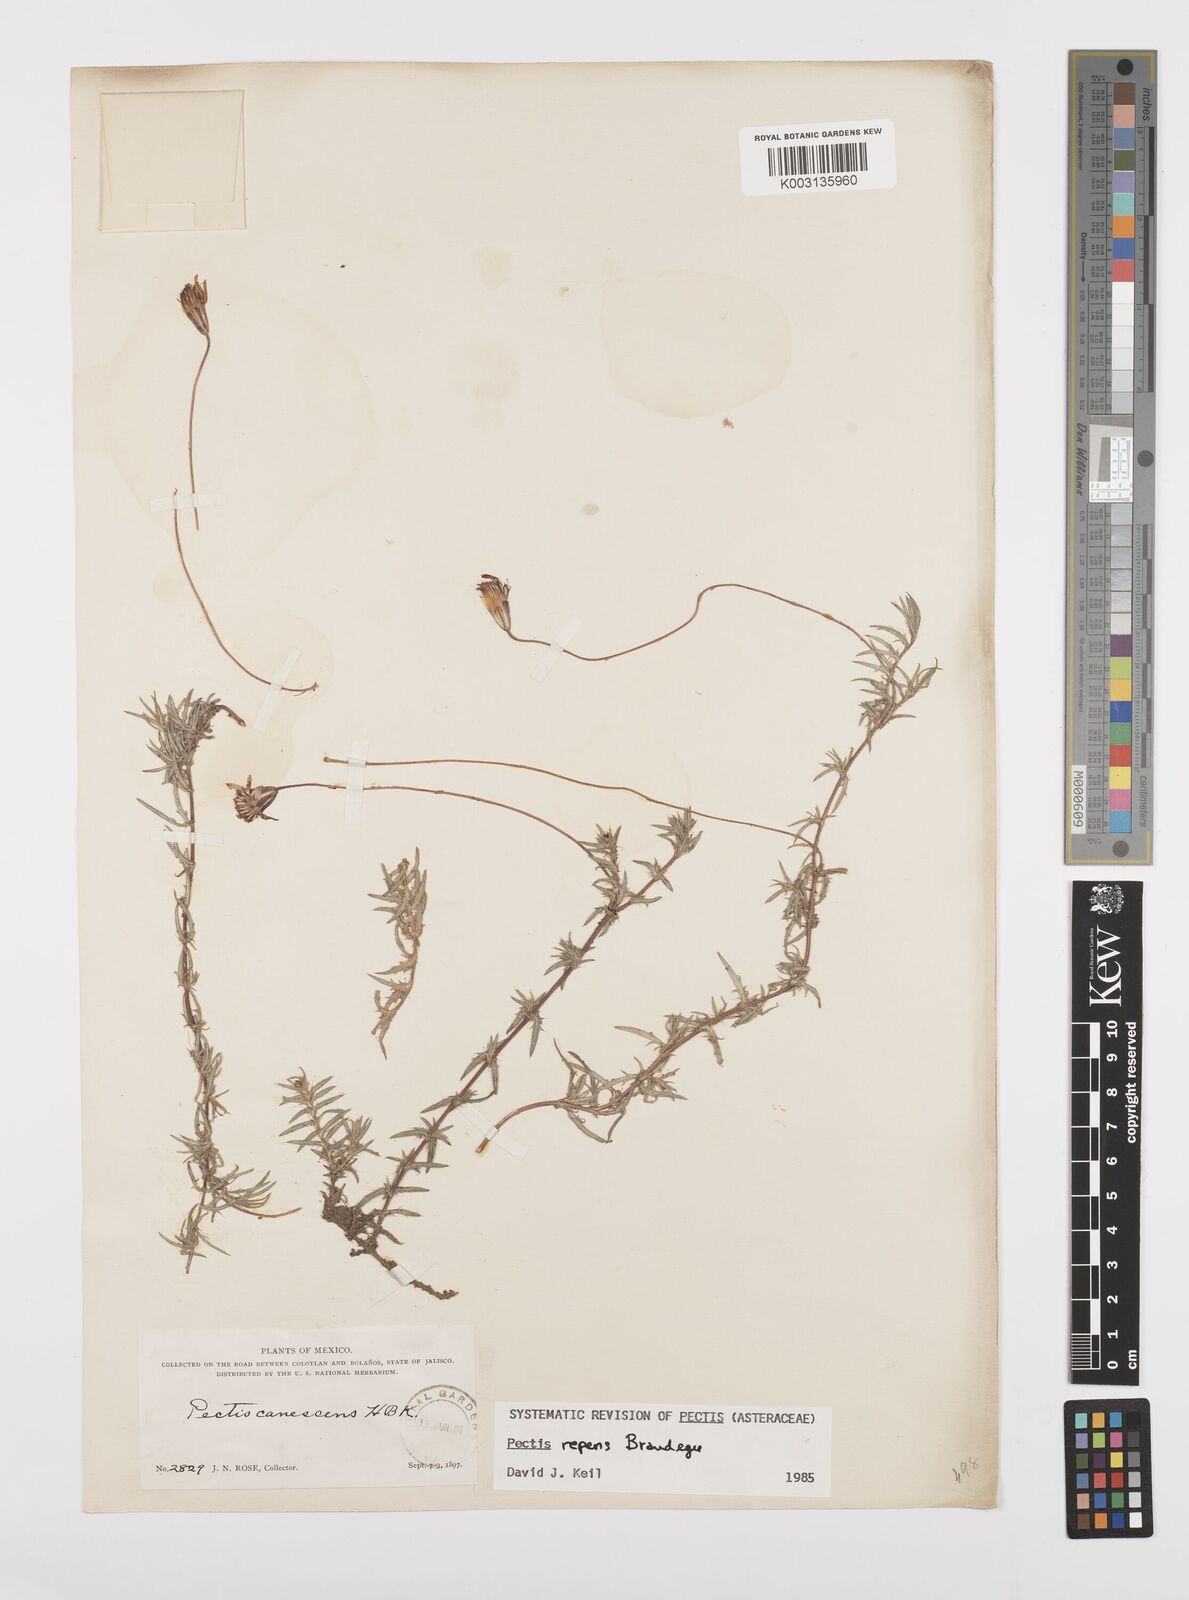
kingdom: Plantae
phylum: Tracheophyta
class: Magnoliopsida
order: Asterales
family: Asteraceae
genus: Pectis
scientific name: Pectis canescens
